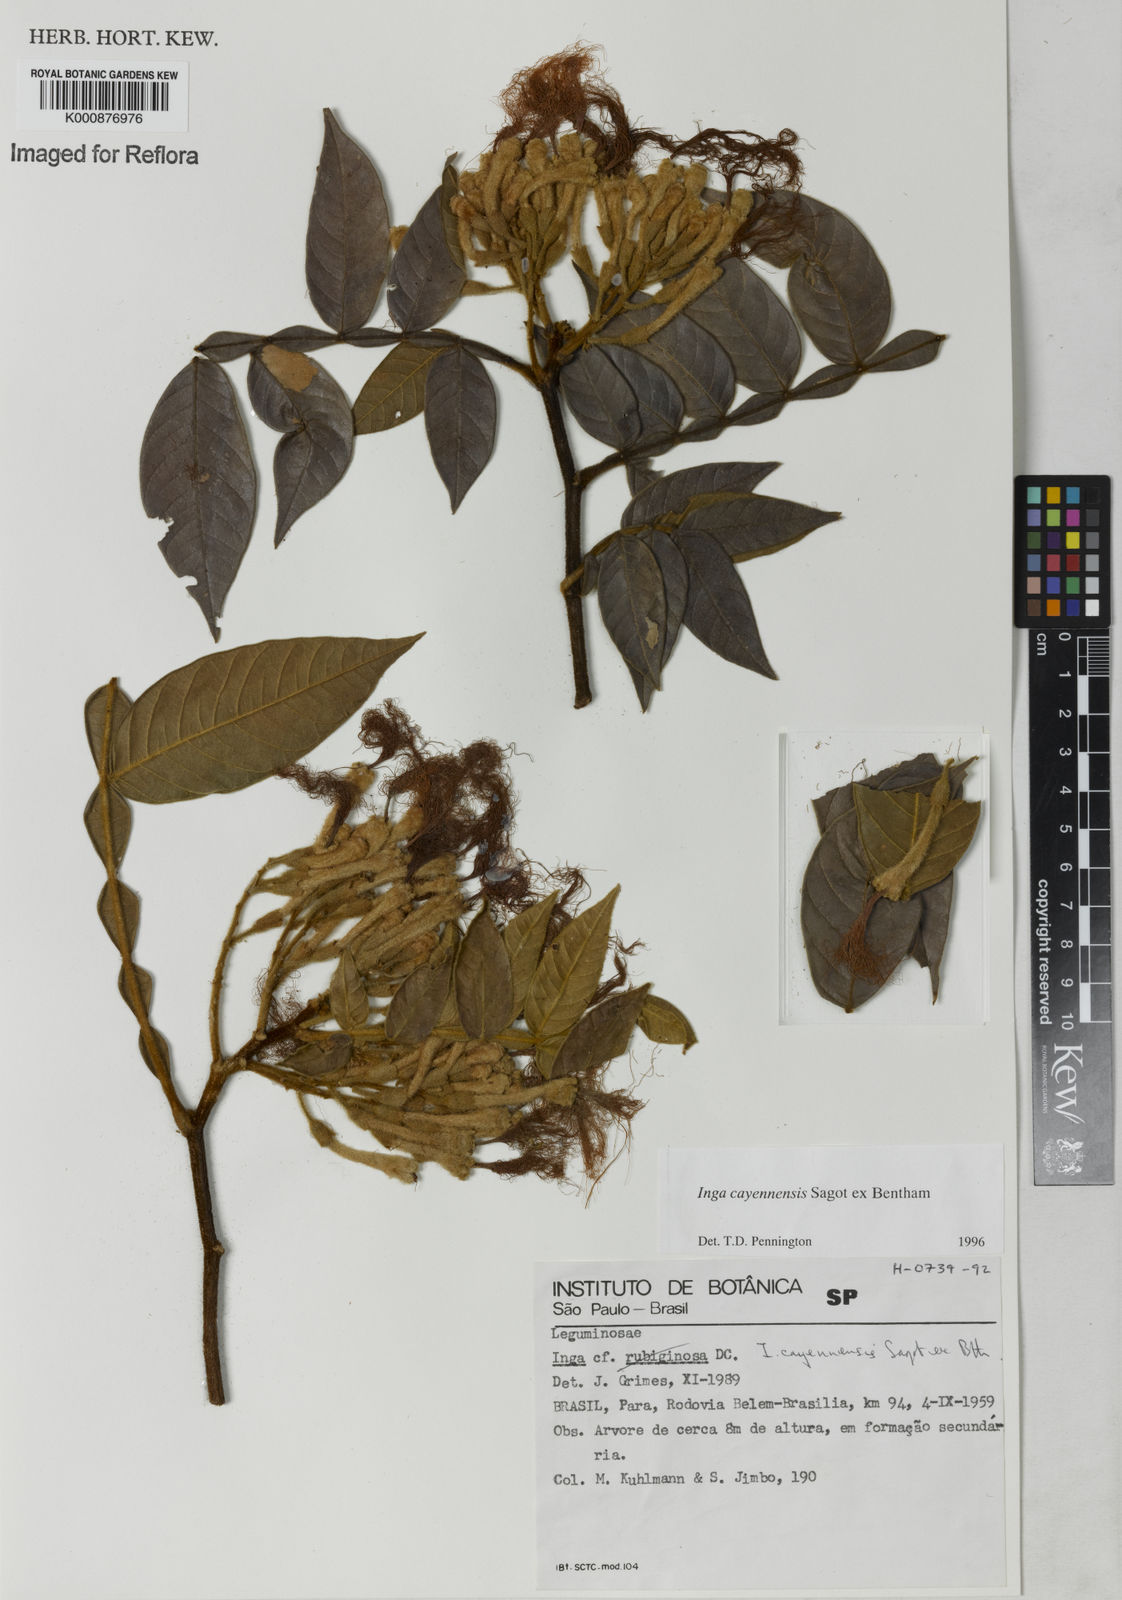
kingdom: Plantae
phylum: Tracheophyta
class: Magnoliopsida
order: Fabales
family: Fabaceae
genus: Inga
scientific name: Inga cayennensis
